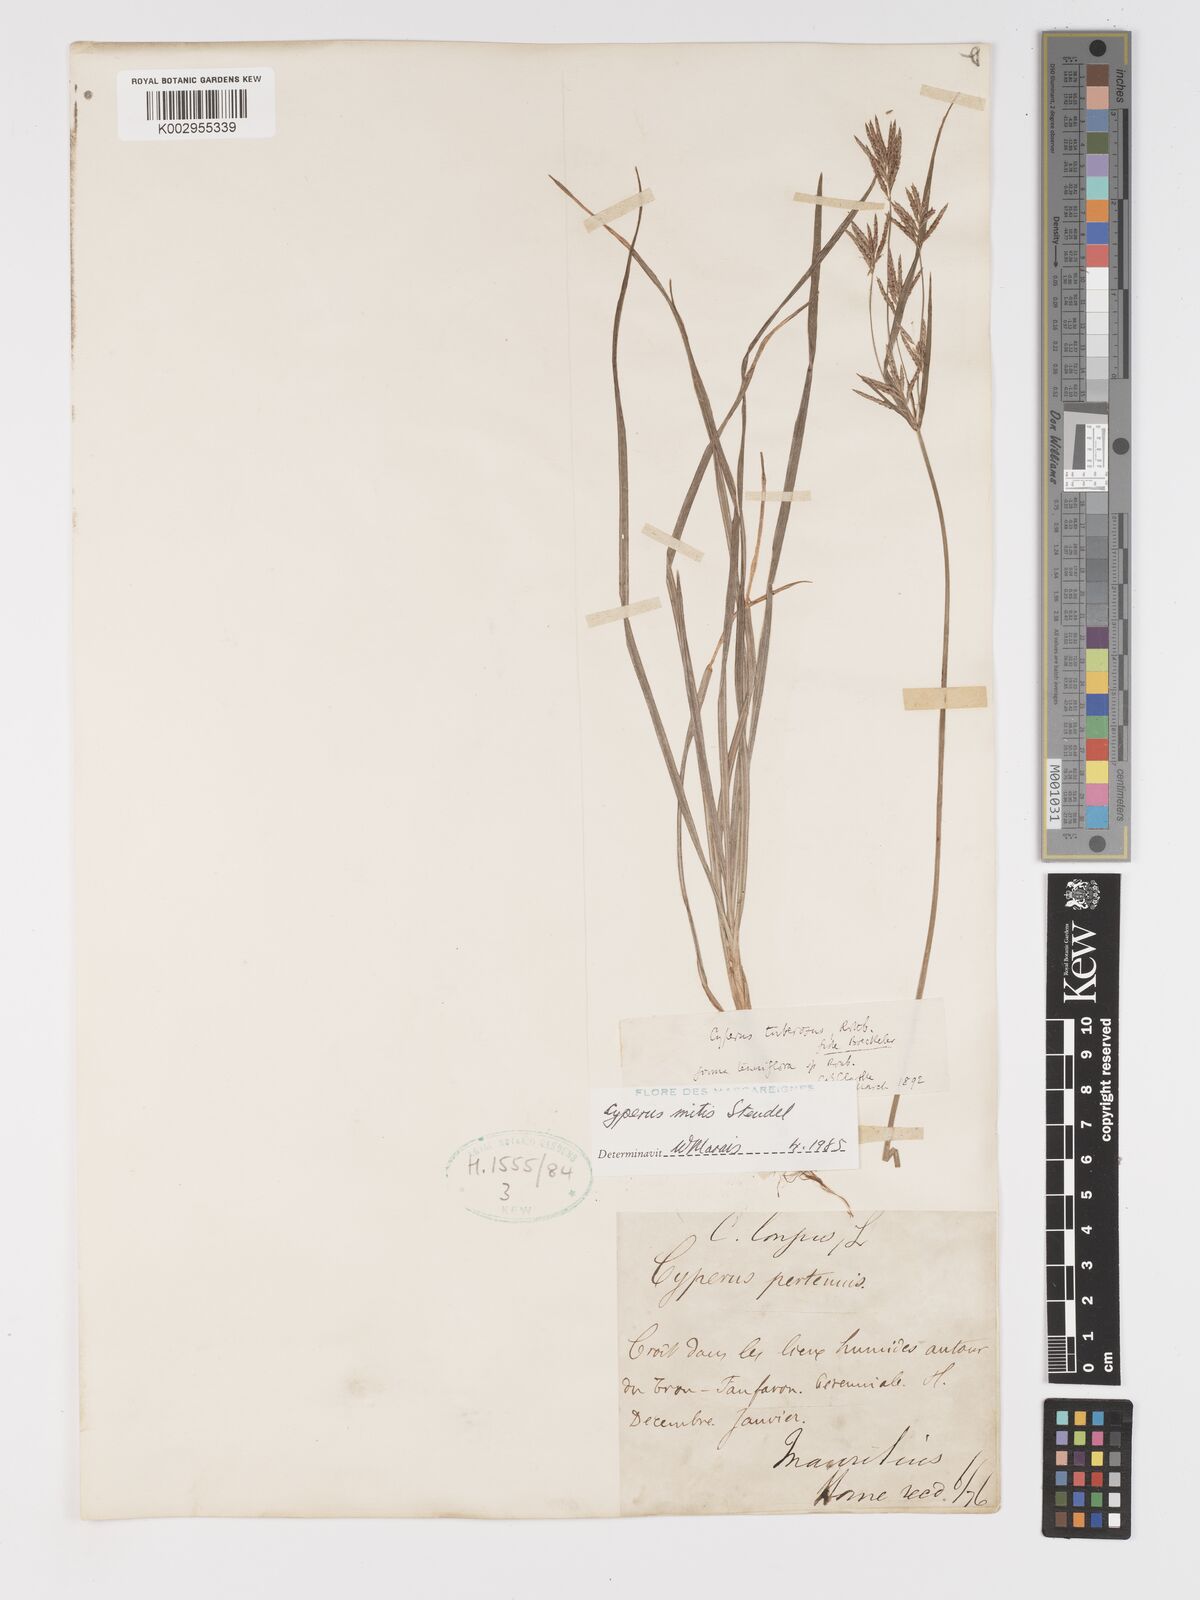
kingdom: Plantae
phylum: Tracheophyta
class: Liliopsida
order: Poales
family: Cyperaceae
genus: Cyperus
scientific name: Cyperus mitis
